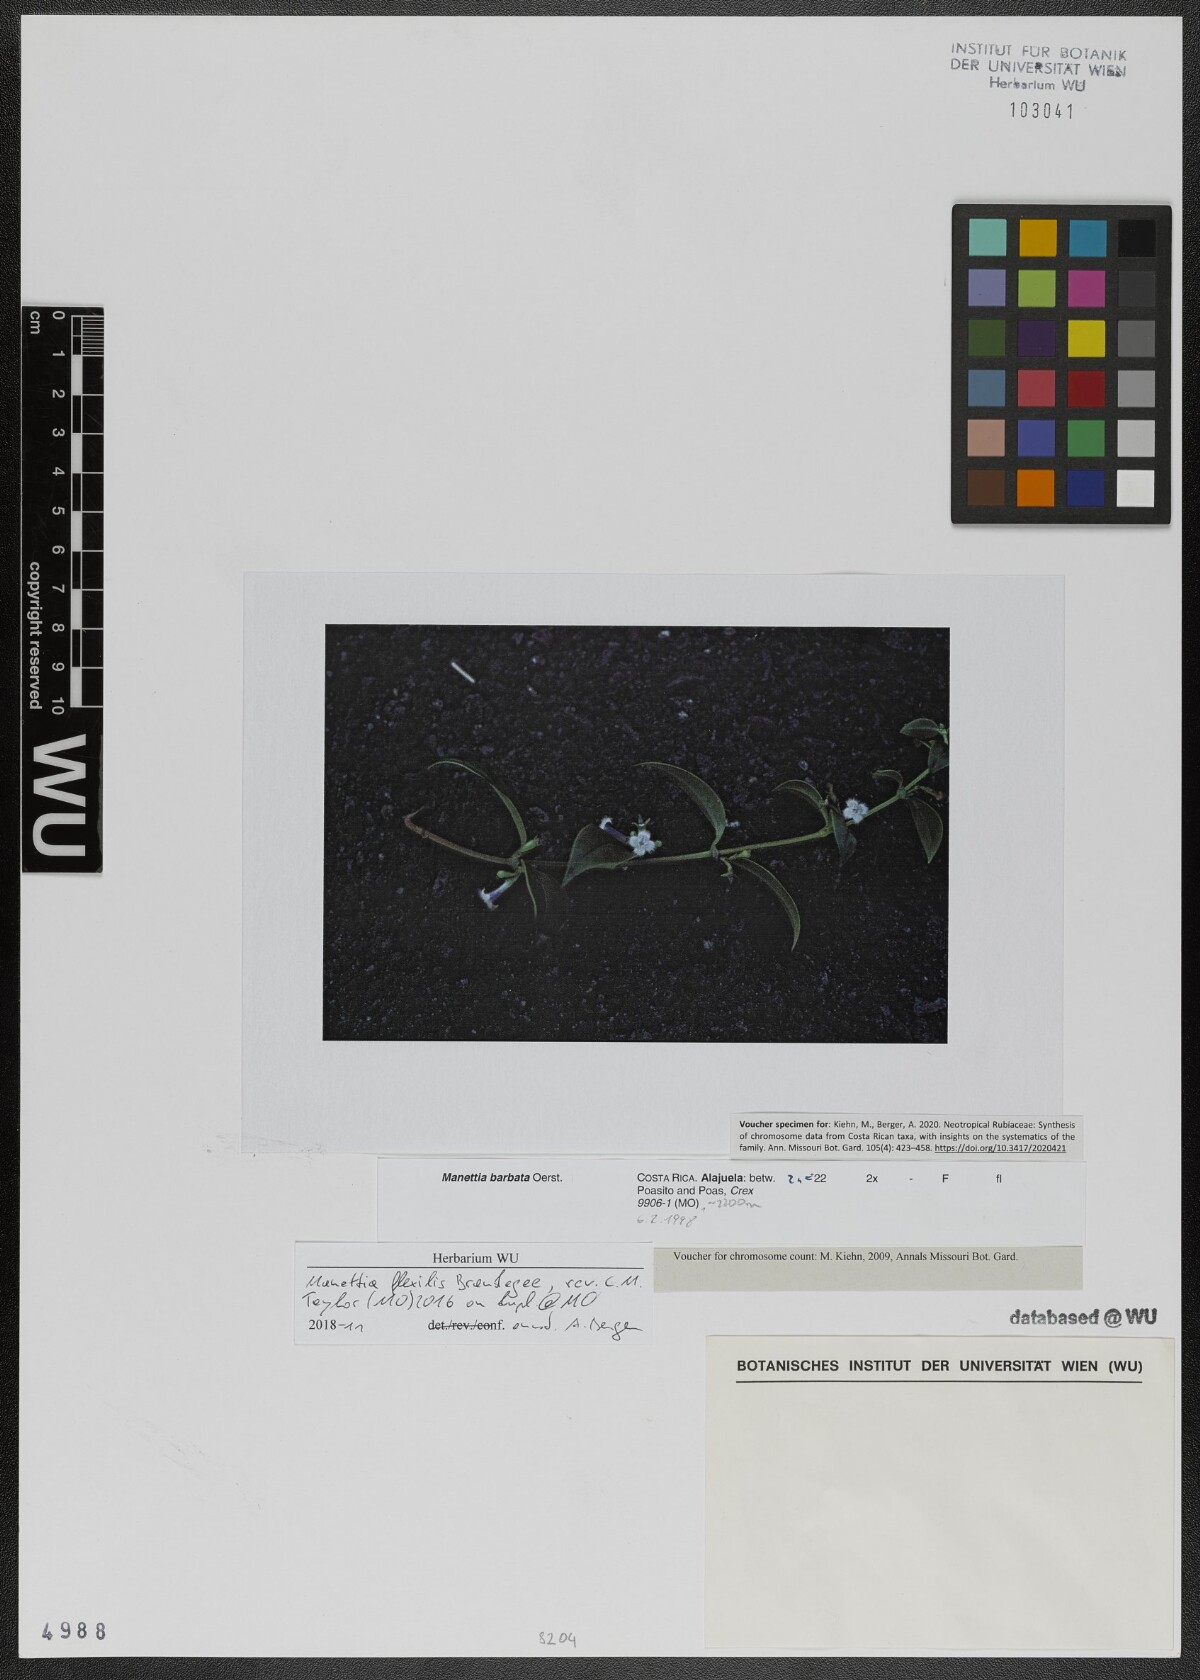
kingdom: Plantae
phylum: Tracheophyta
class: Magnoliopsida
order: Gentianales
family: Rubiaceae
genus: Manettia
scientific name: Manettia flexilis
